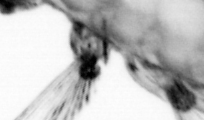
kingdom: Animalia
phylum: Annelida
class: Polychaeta
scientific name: Polychaeta
